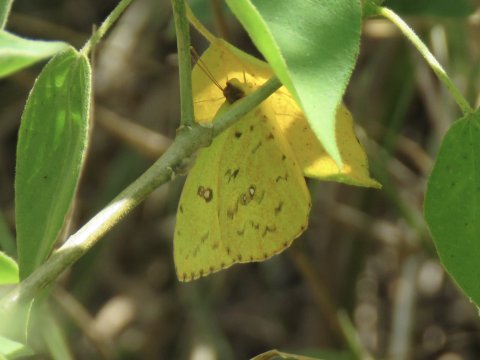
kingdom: Animalia
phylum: Arthropoda
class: Insecta
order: Lepidoptera
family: Pieridae
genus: Phoebis
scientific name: Phoebis sennae
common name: Cloudless Sulphur
